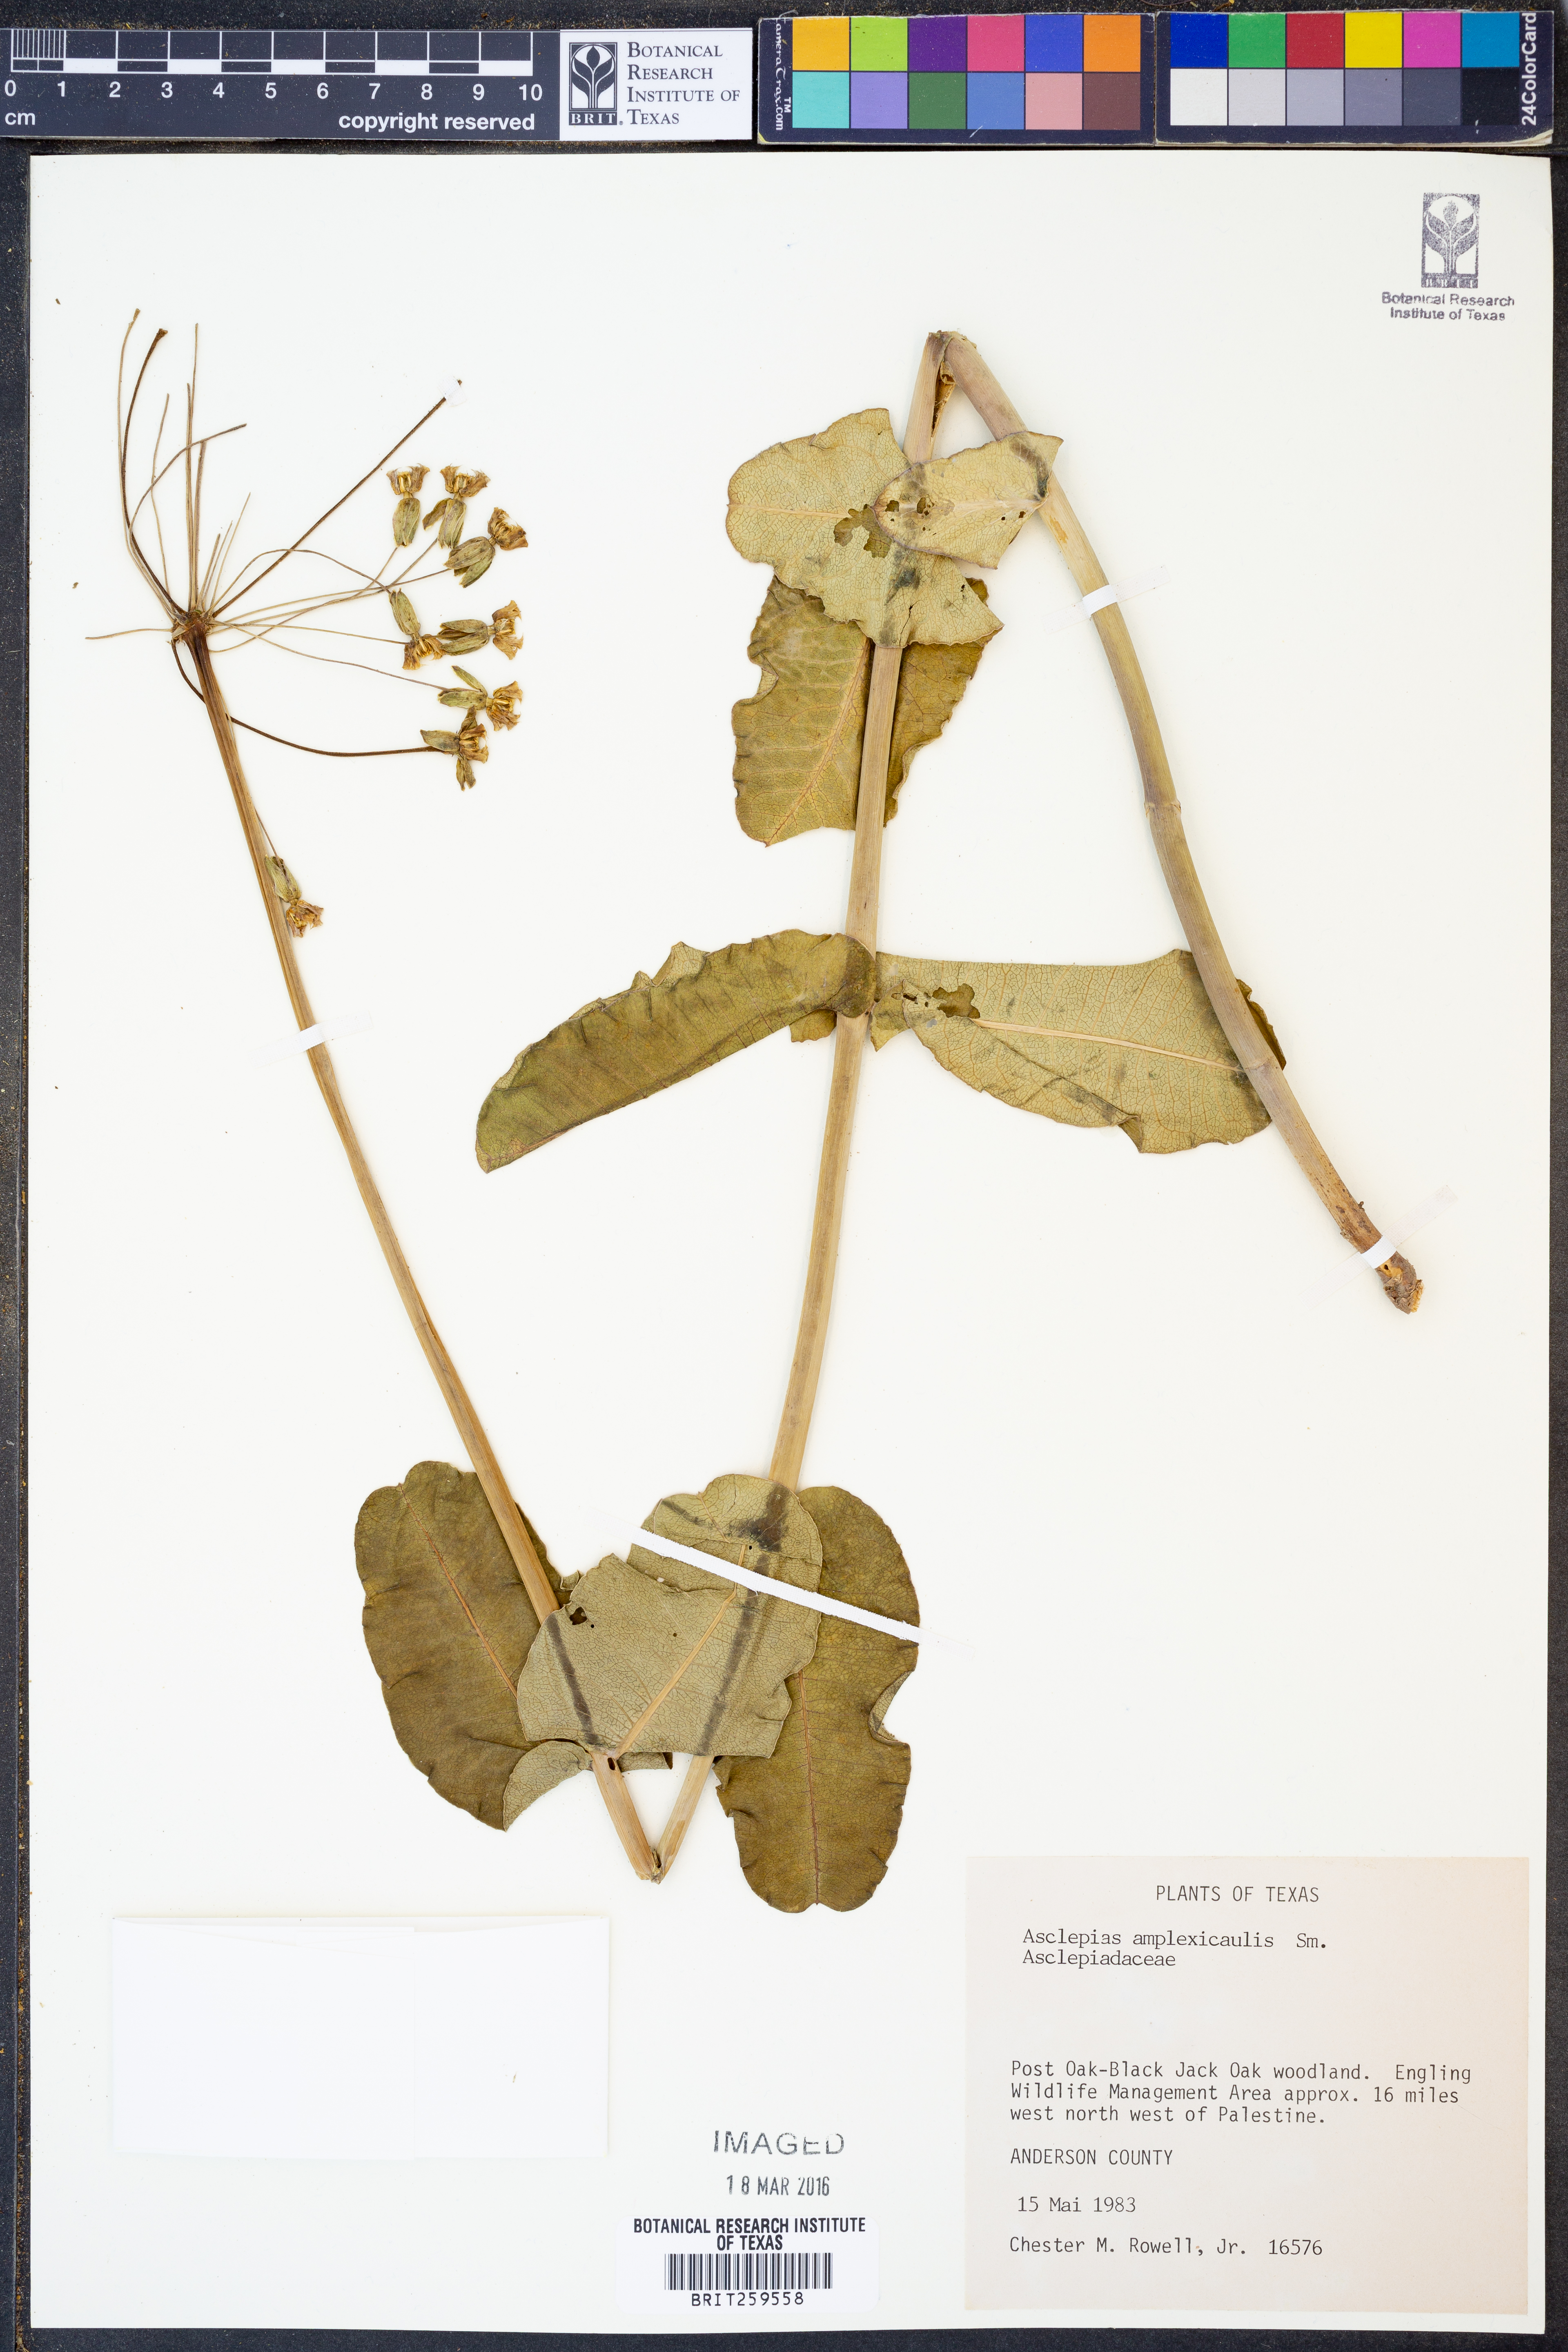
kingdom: Plantae
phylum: Tracheophyta
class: Magnoliopsida
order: Gentianales
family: Apocynaceae
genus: Asclepias
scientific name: Asclepias amplexicaulis
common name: Blunt-leaf milkweed
